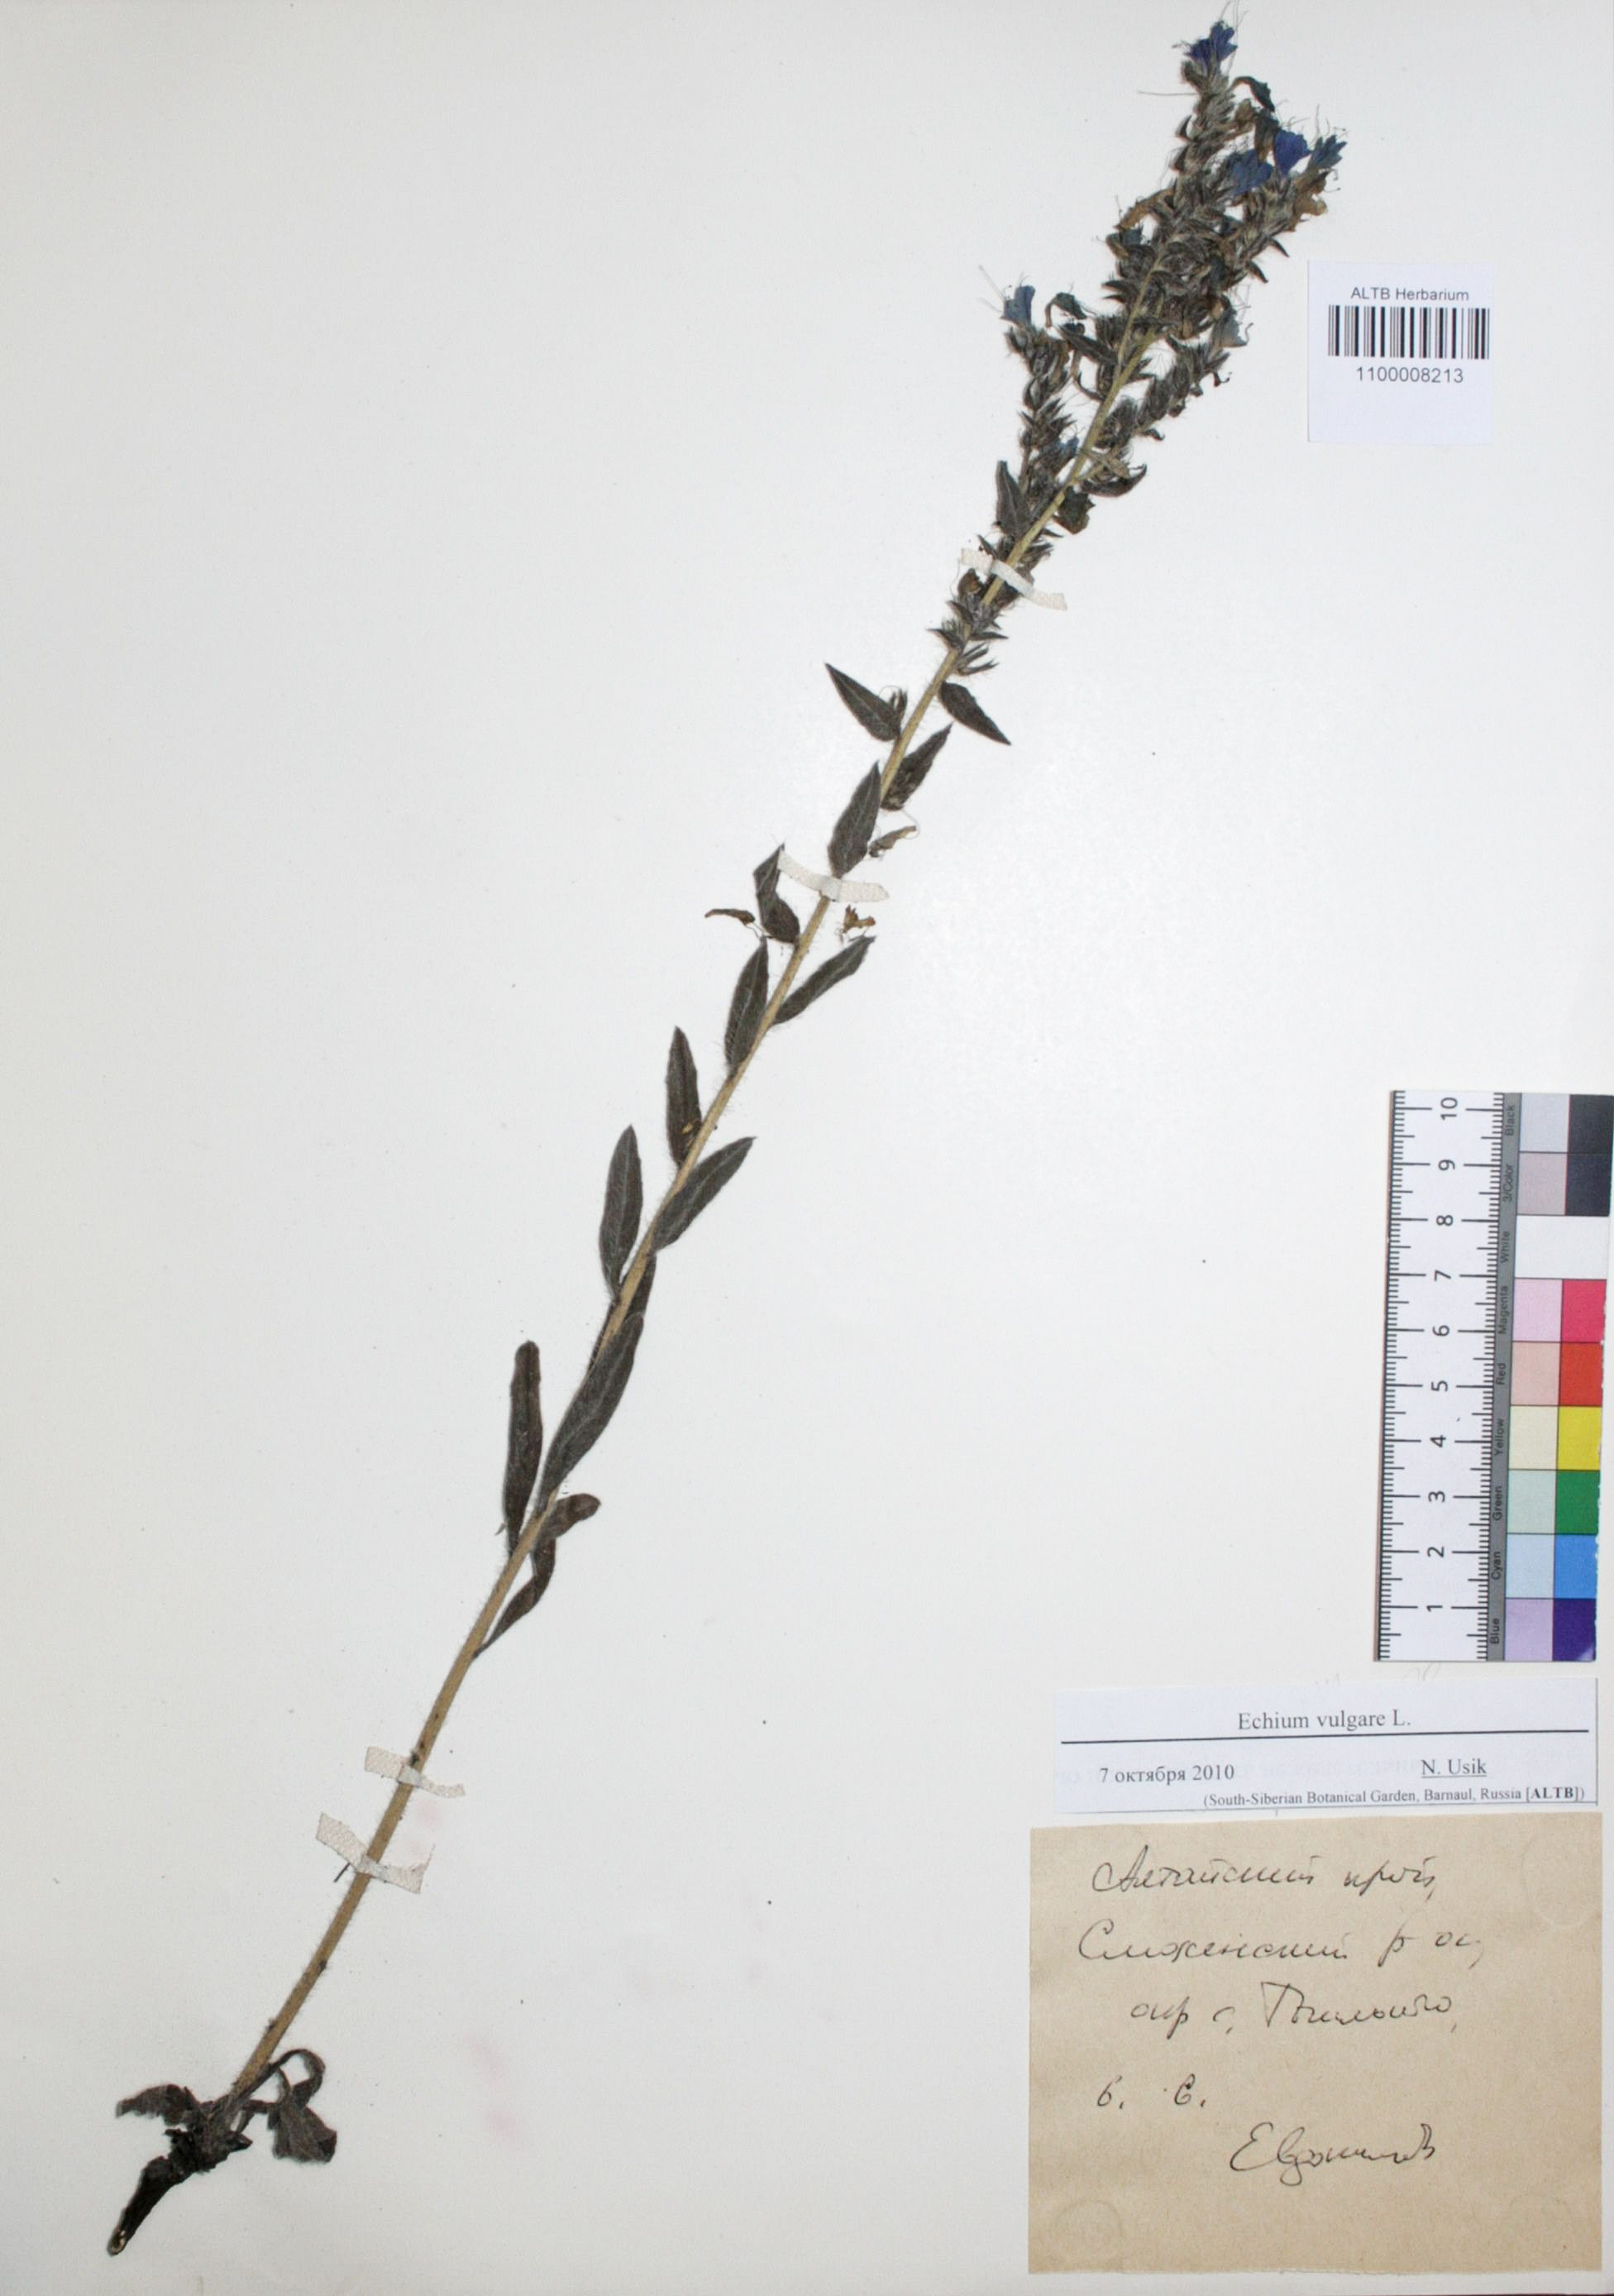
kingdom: Plantae
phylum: Tracheophyta
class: Magnoliopsida
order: Boraginales
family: Boraginaceae
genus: Echium
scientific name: Echium vulgare
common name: Common viper's bugloss
